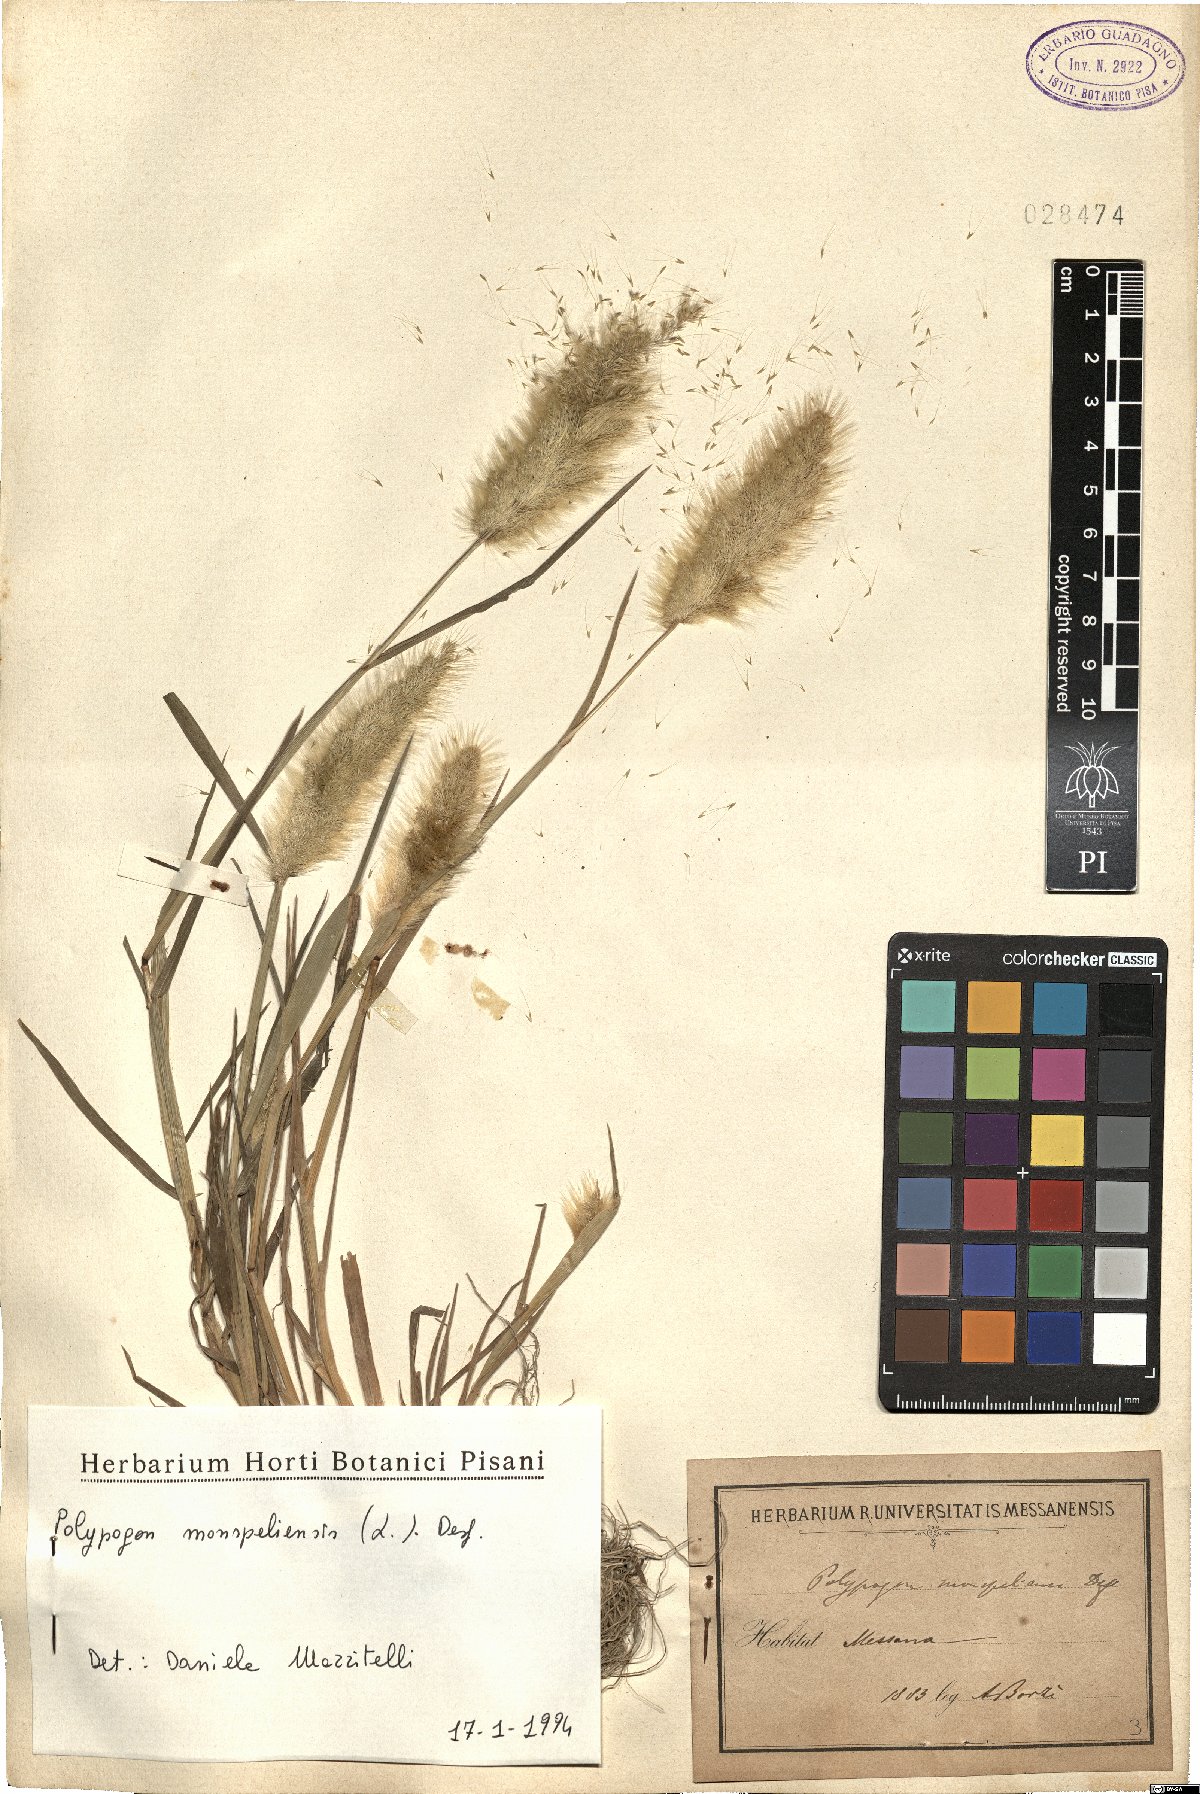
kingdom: Plantae
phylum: Tracheophyta
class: Liliopsida
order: Poales
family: Poaceae
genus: Polypogon
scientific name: Polypogon monspeliensis
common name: Annual rabbitsfoot grass
